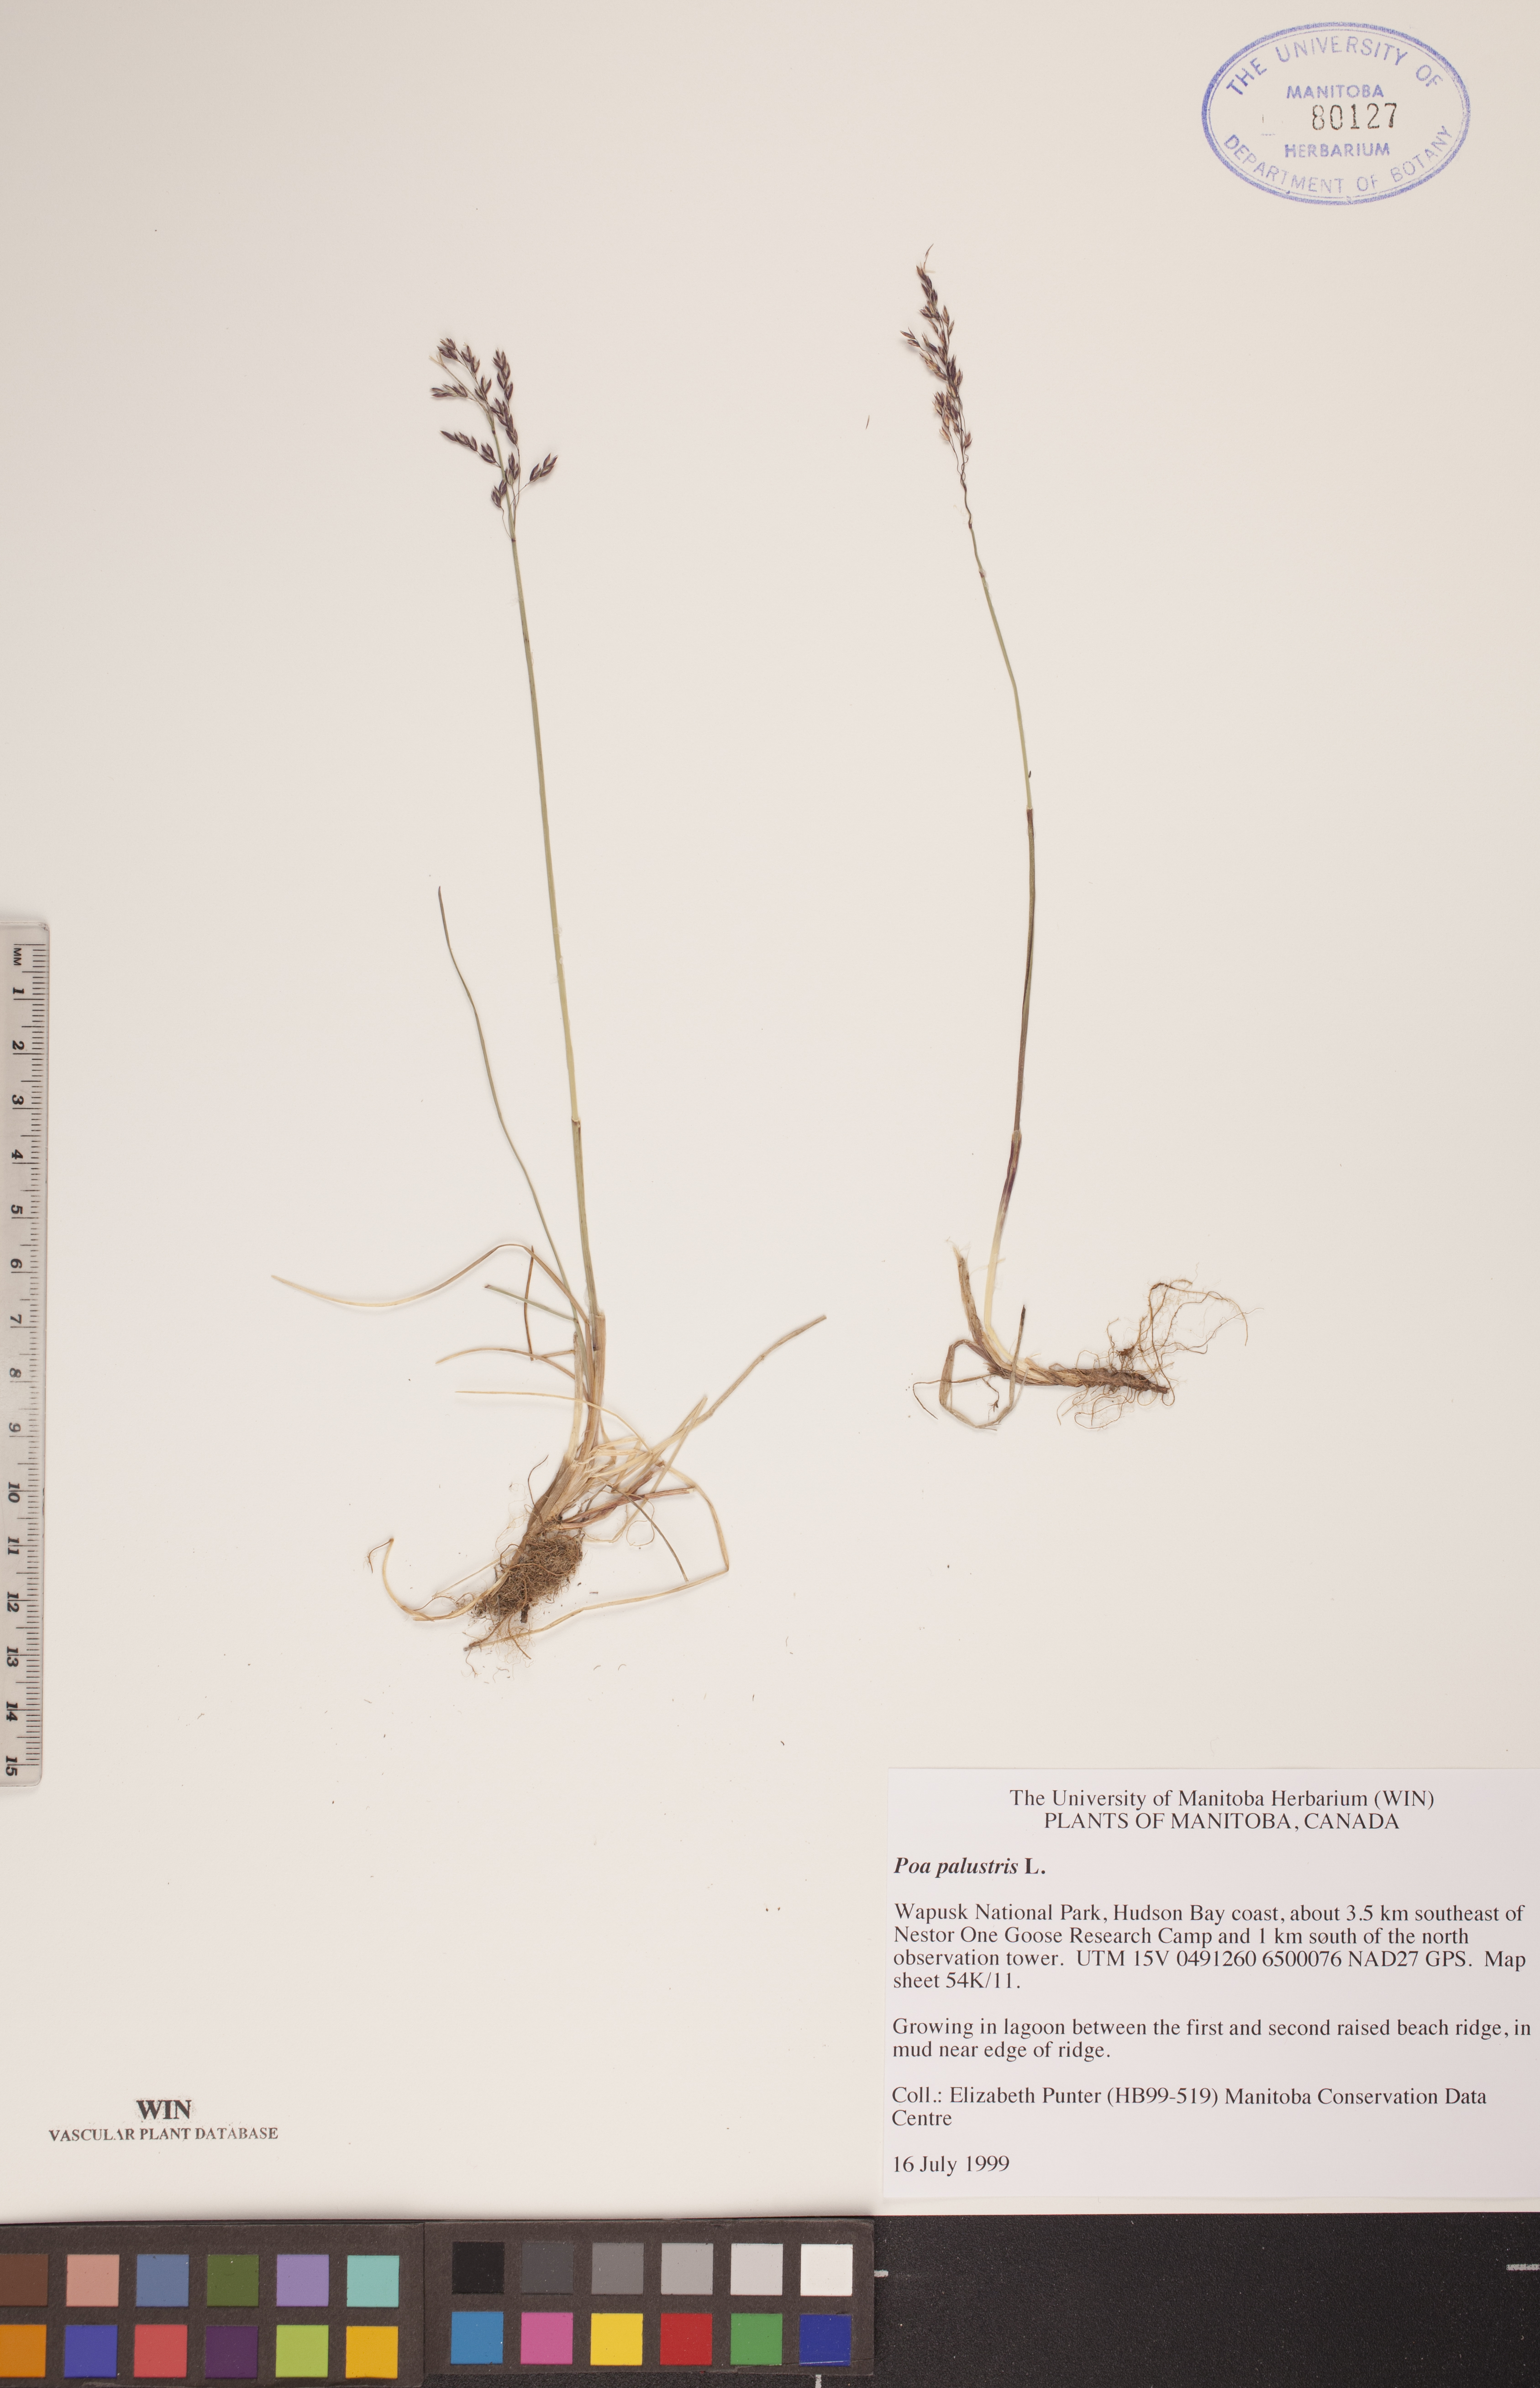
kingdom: Plantae
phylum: Tracheophyta
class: Liliopsida
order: Poales
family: Poaceae
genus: Poa
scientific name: Poa palustris
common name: Swamp meadow-grass
